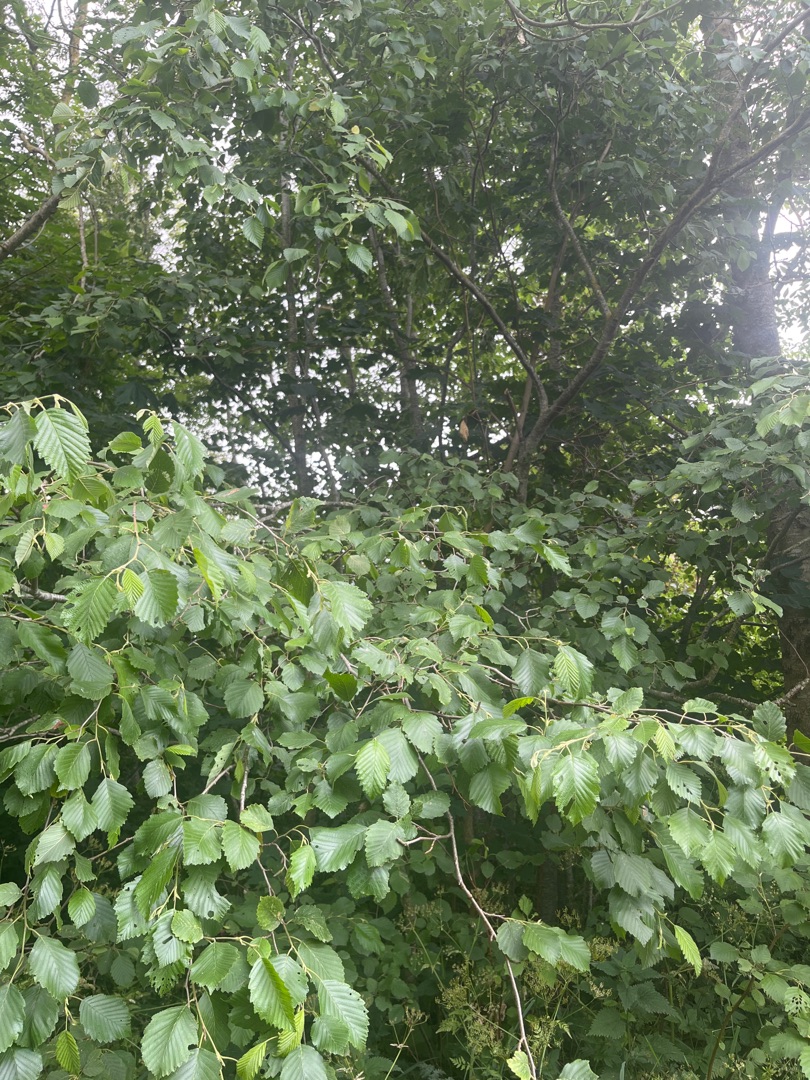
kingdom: Plantae
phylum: Tracheophyta
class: Magnoliopsida
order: Fagales
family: Betulaceae
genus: Alnus
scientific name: Alnus incana
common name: Grå-el/hvid-el
